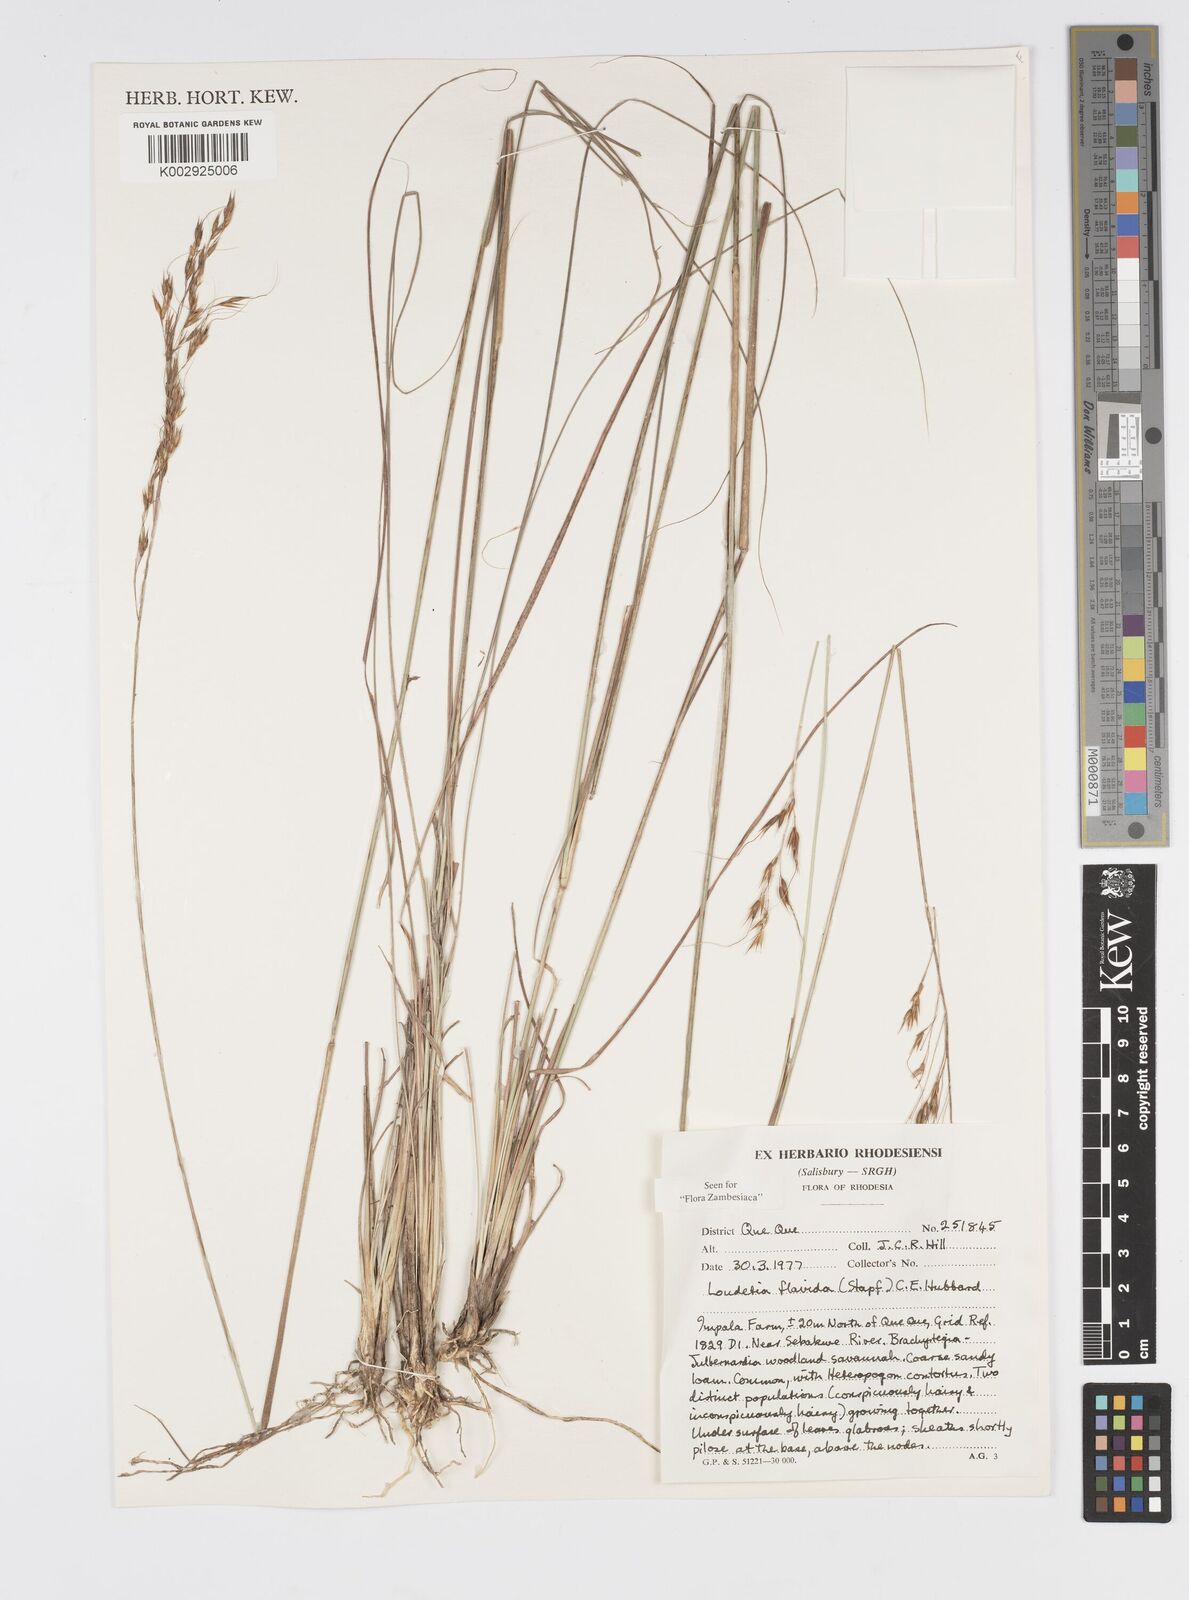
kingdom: Plantae
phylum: Tracheophyta
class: Liliopsida
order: Poales
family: Poaceae
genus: Loudetia
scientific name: Loudetia flavida
